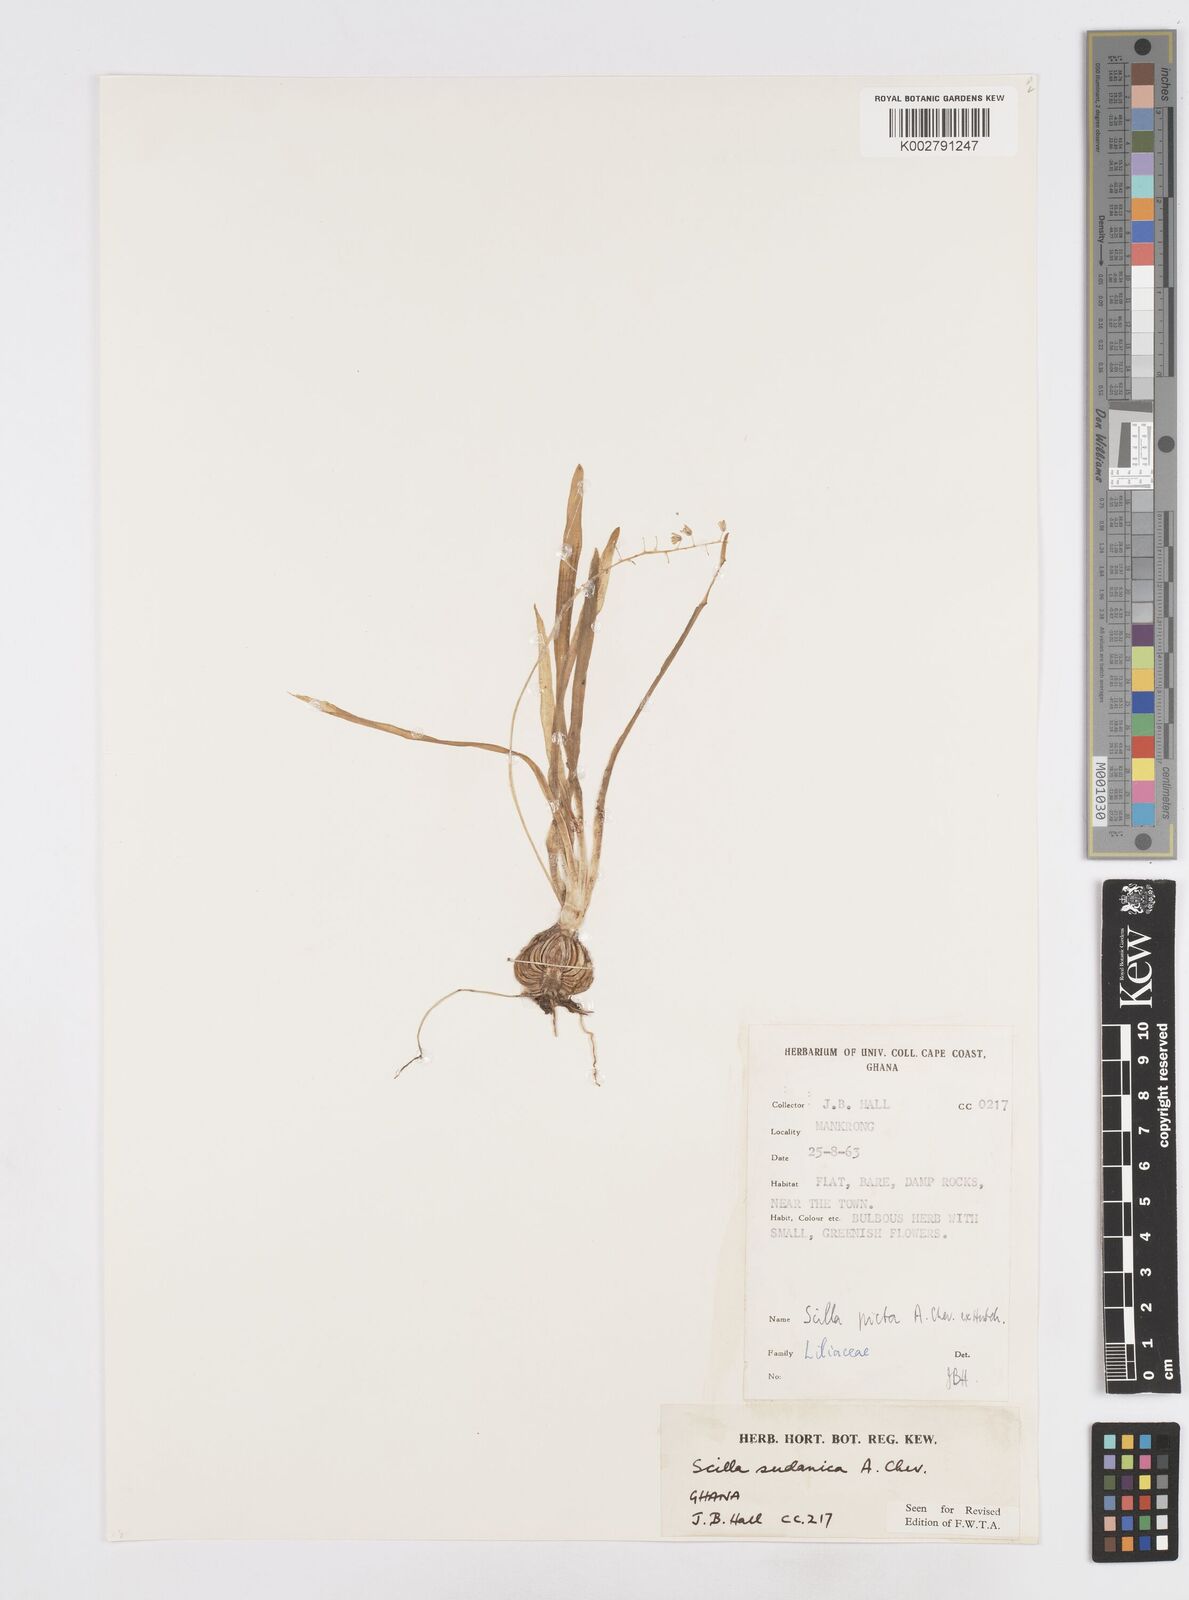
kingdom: Plantae
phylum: Tracheophyta
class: Liliopsida
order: Asparagales
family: Asparagaceae
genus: Ledebouria
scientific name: Ledebouria sudanica
